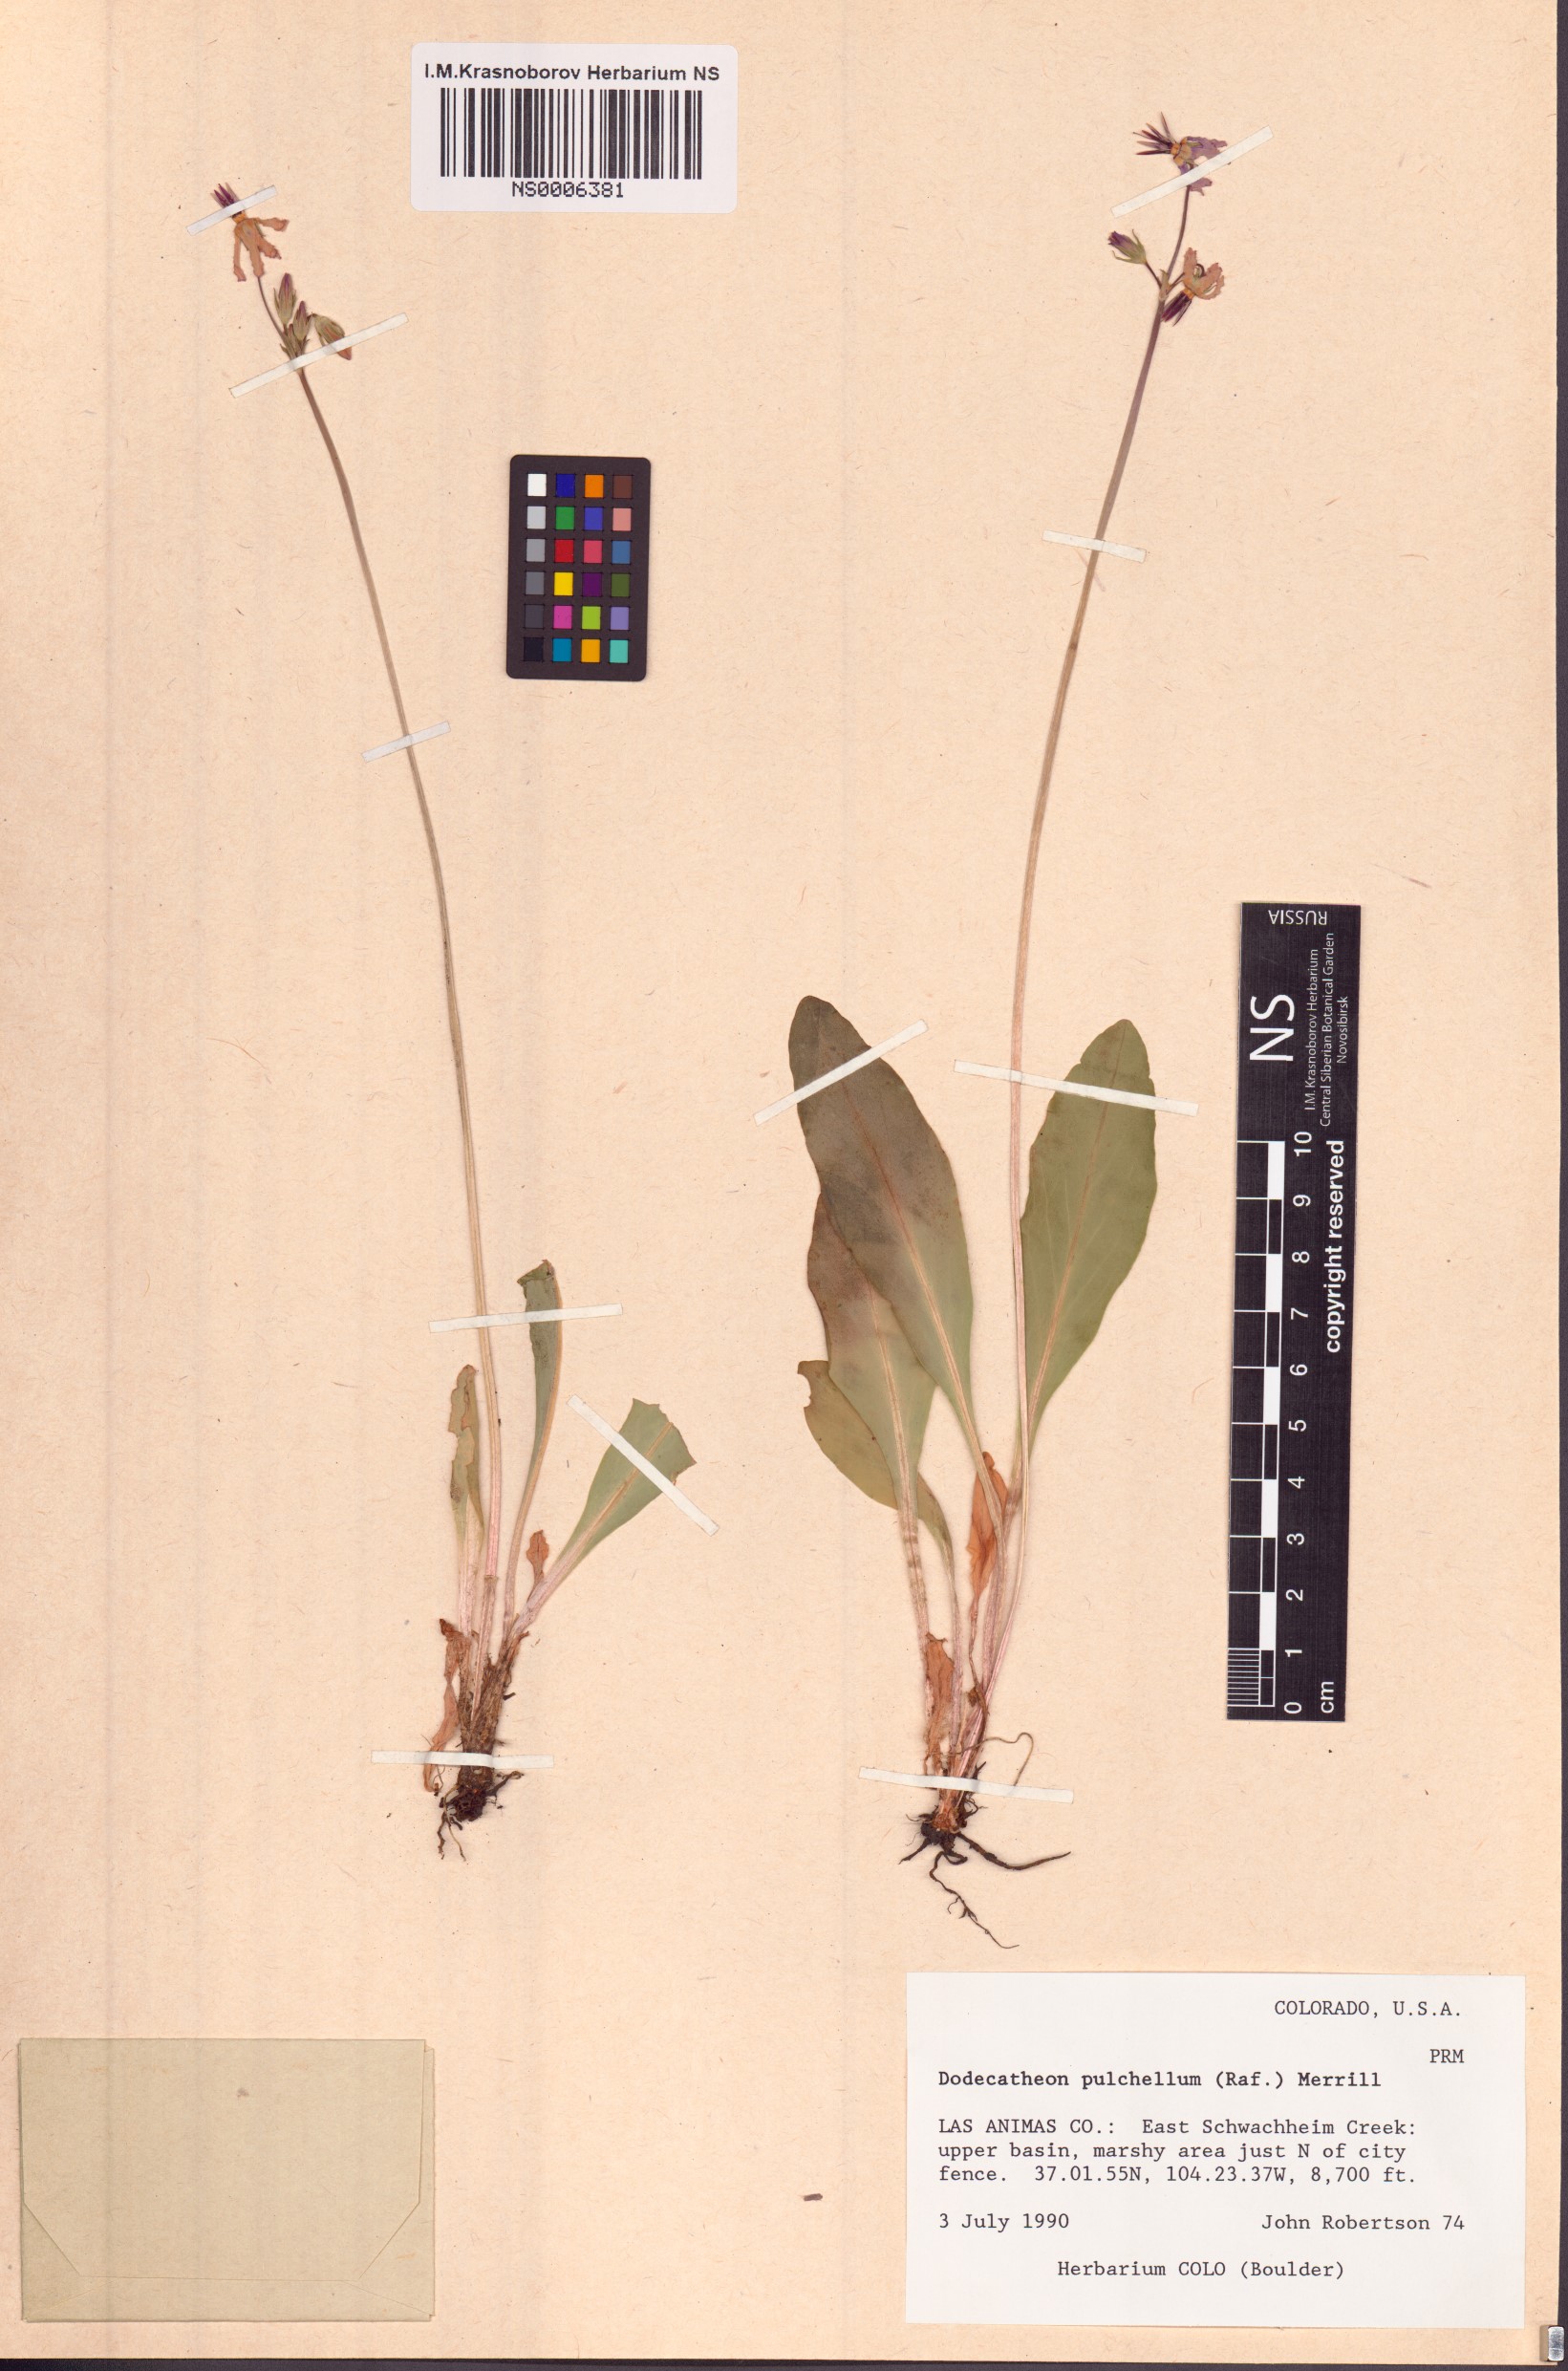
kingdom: Plantae
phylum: Tracheophyta
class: Magnoliopsida
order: Ericales
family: Primulaceae
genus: Dodecatheon
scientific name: Dodecatheon pulchellum
